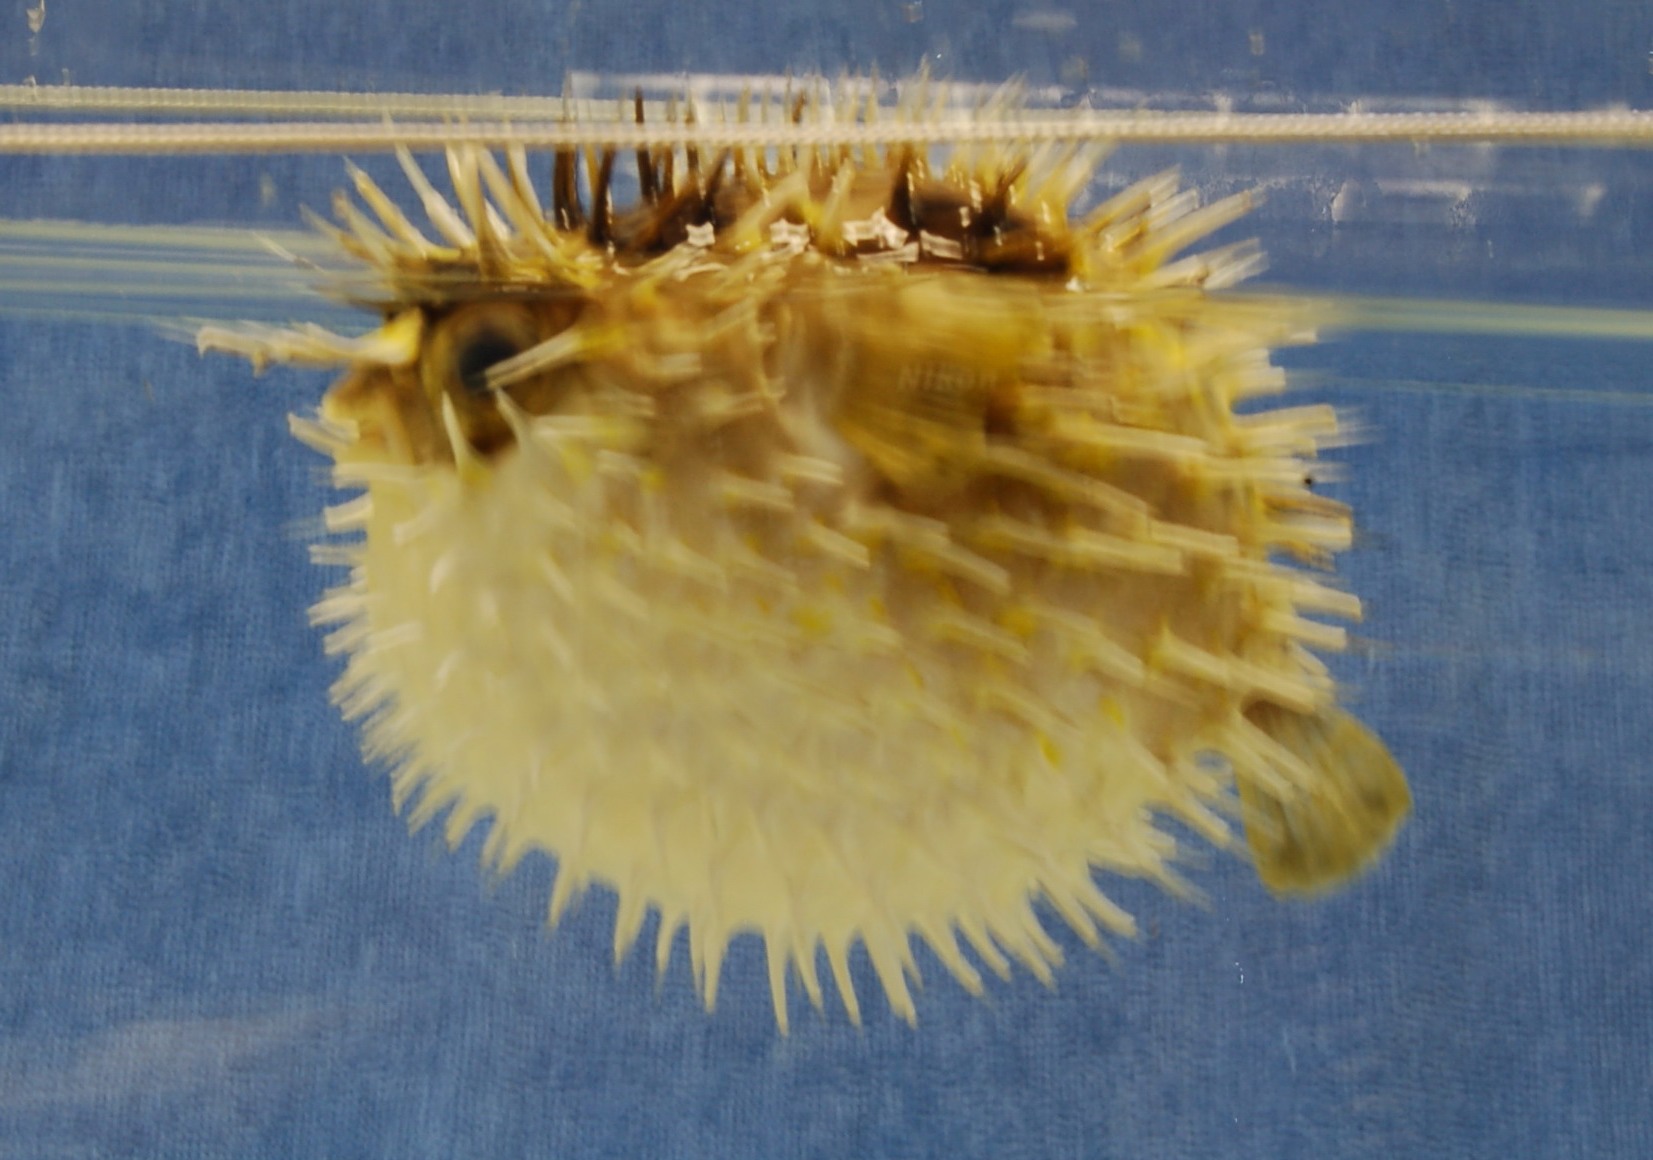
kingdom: Animalia
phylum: Chordata
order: Tetraodontiformes
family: Diodontidae
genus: Diodon
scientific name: Diodon
